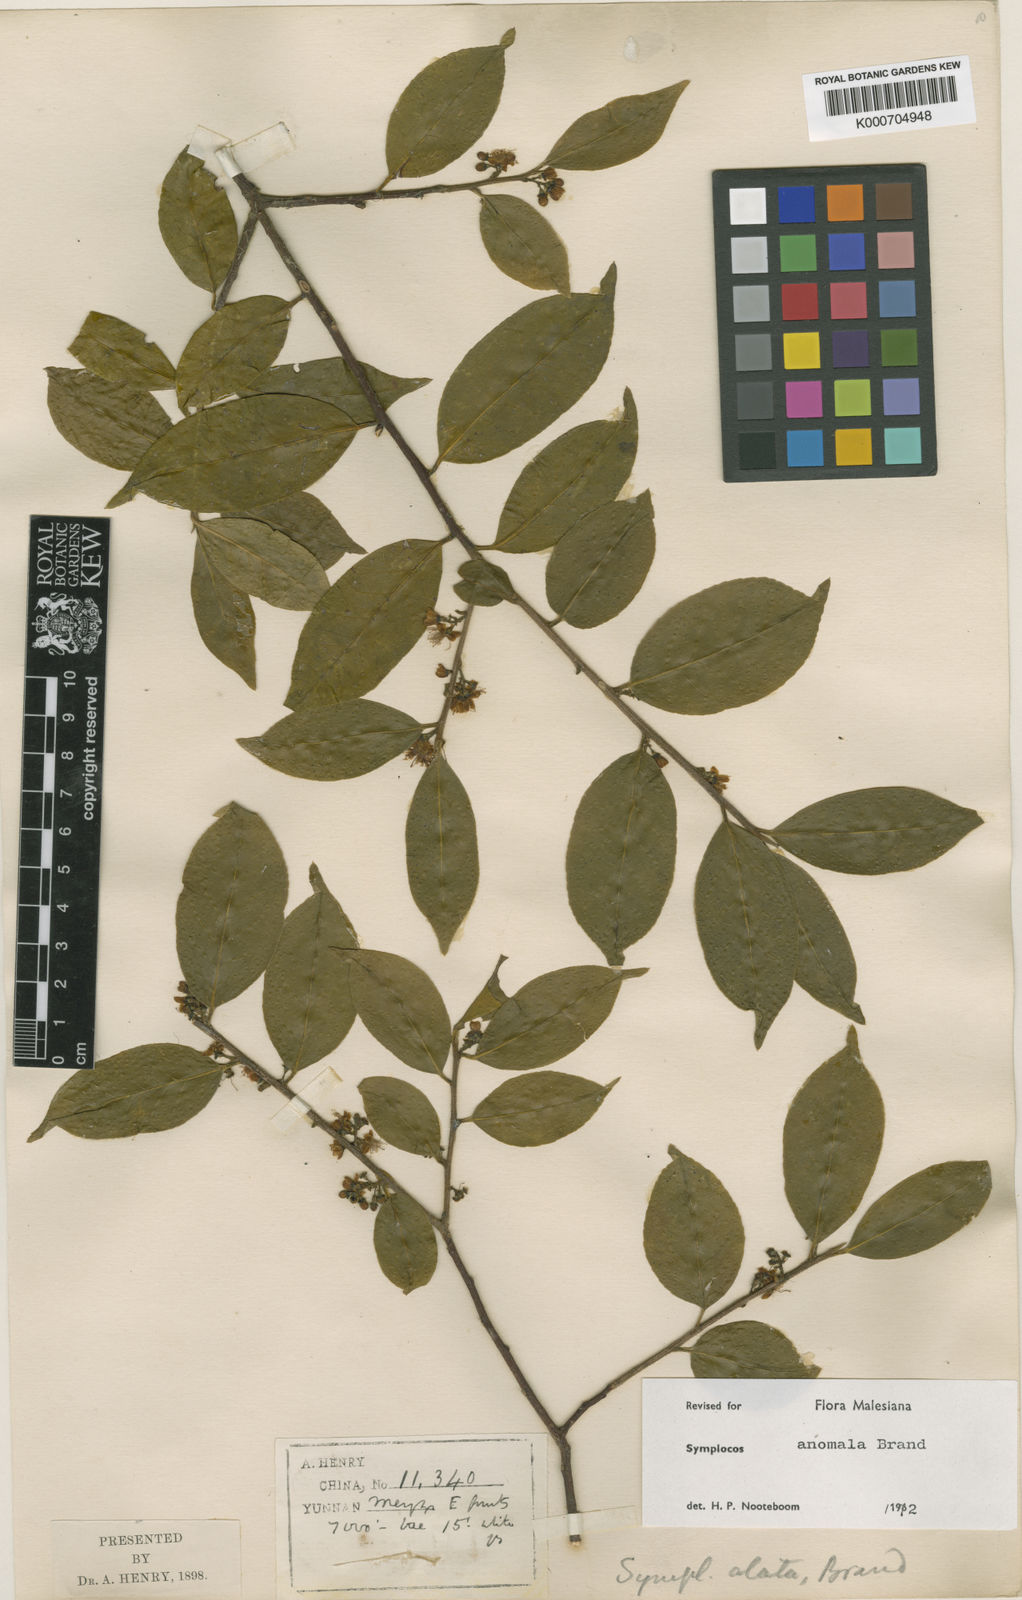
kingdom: Plantae
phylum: Tracheophyta
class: Magnoliopsida
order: Ericales
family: Symplocaceae
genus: Symplocos
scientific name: Symplocos anomala
